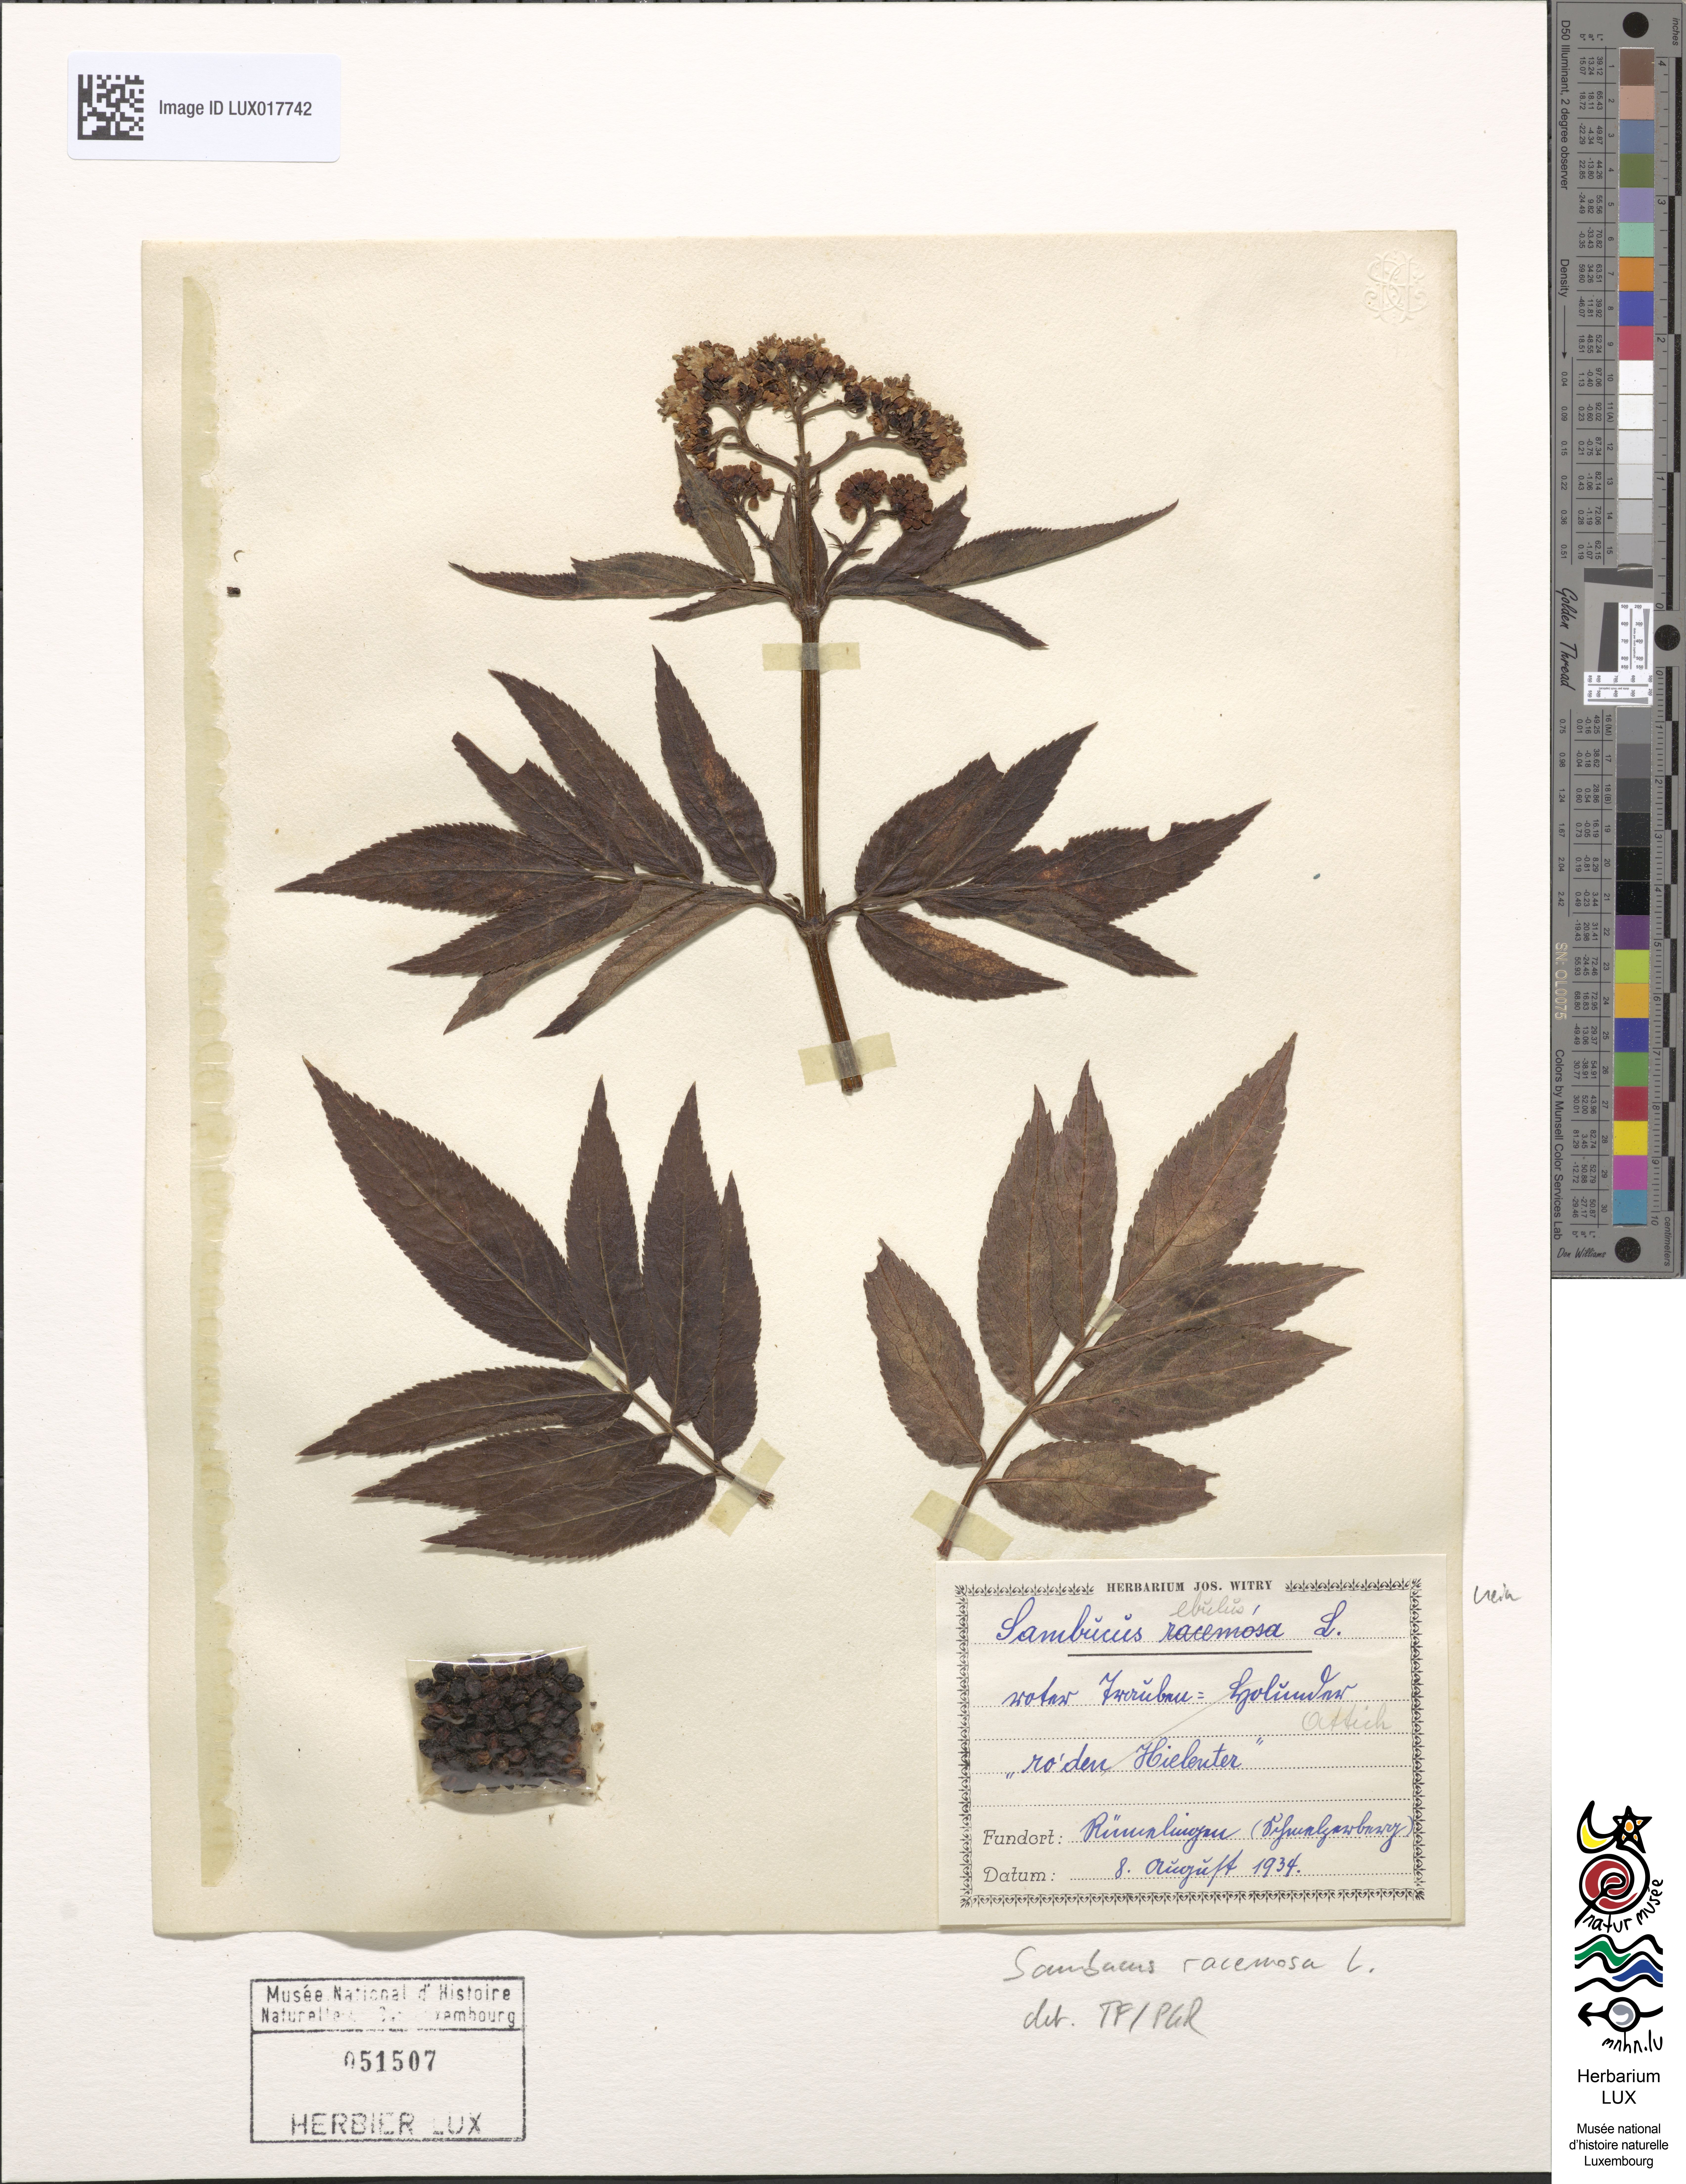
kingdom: Plantae
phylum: Tracheophyta
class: Magnoliopsida
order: Dipsacales
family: Viburnaceae
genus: Sambucus
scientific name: Sambucus racemosa
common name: Red-berried elder
